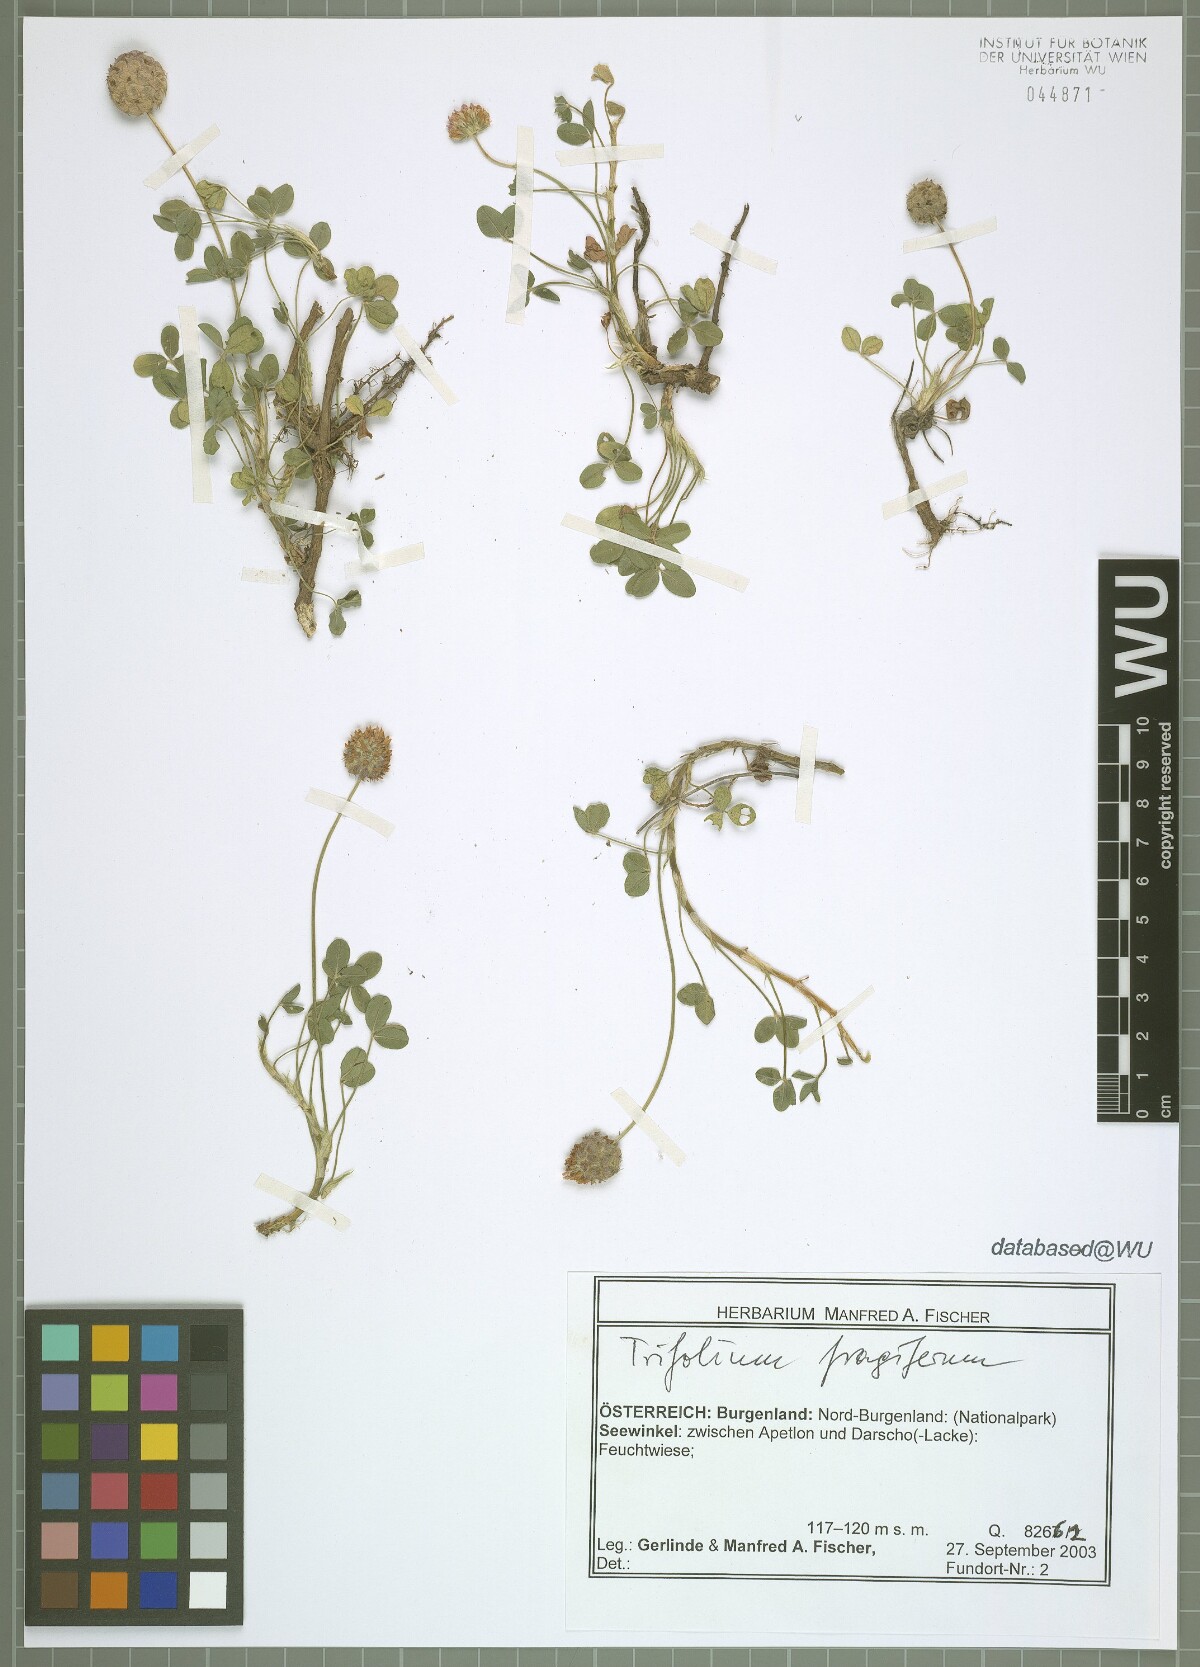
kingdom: Plantae
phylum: Tracheophyta
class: Magnoliopsida
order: Fabales
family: Fabaceae
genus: Trifolium
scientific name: Trifolium fragiferum
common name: Strawberry clover
